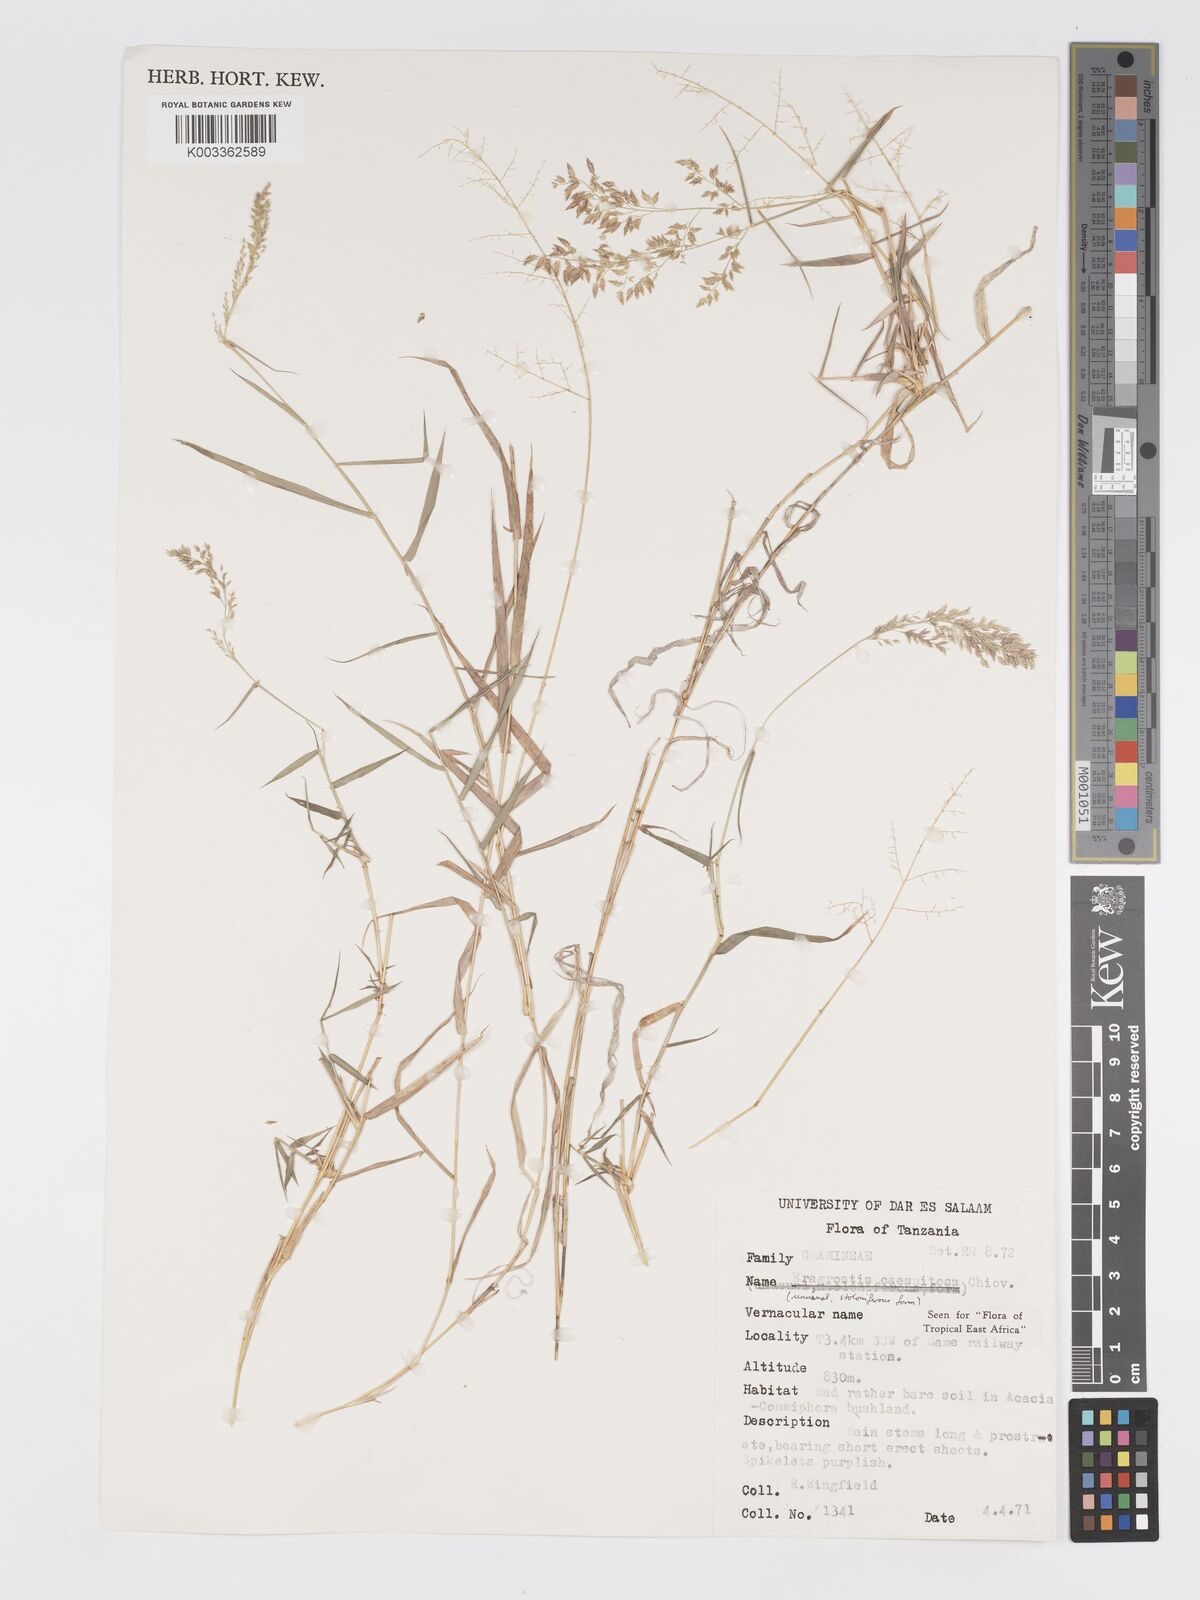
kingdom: Plantae
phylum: Tracheophyta
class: Liliopsida
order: Poales
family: Poaceae
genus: Eragrostis
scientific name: Eragrostis caespitosa
